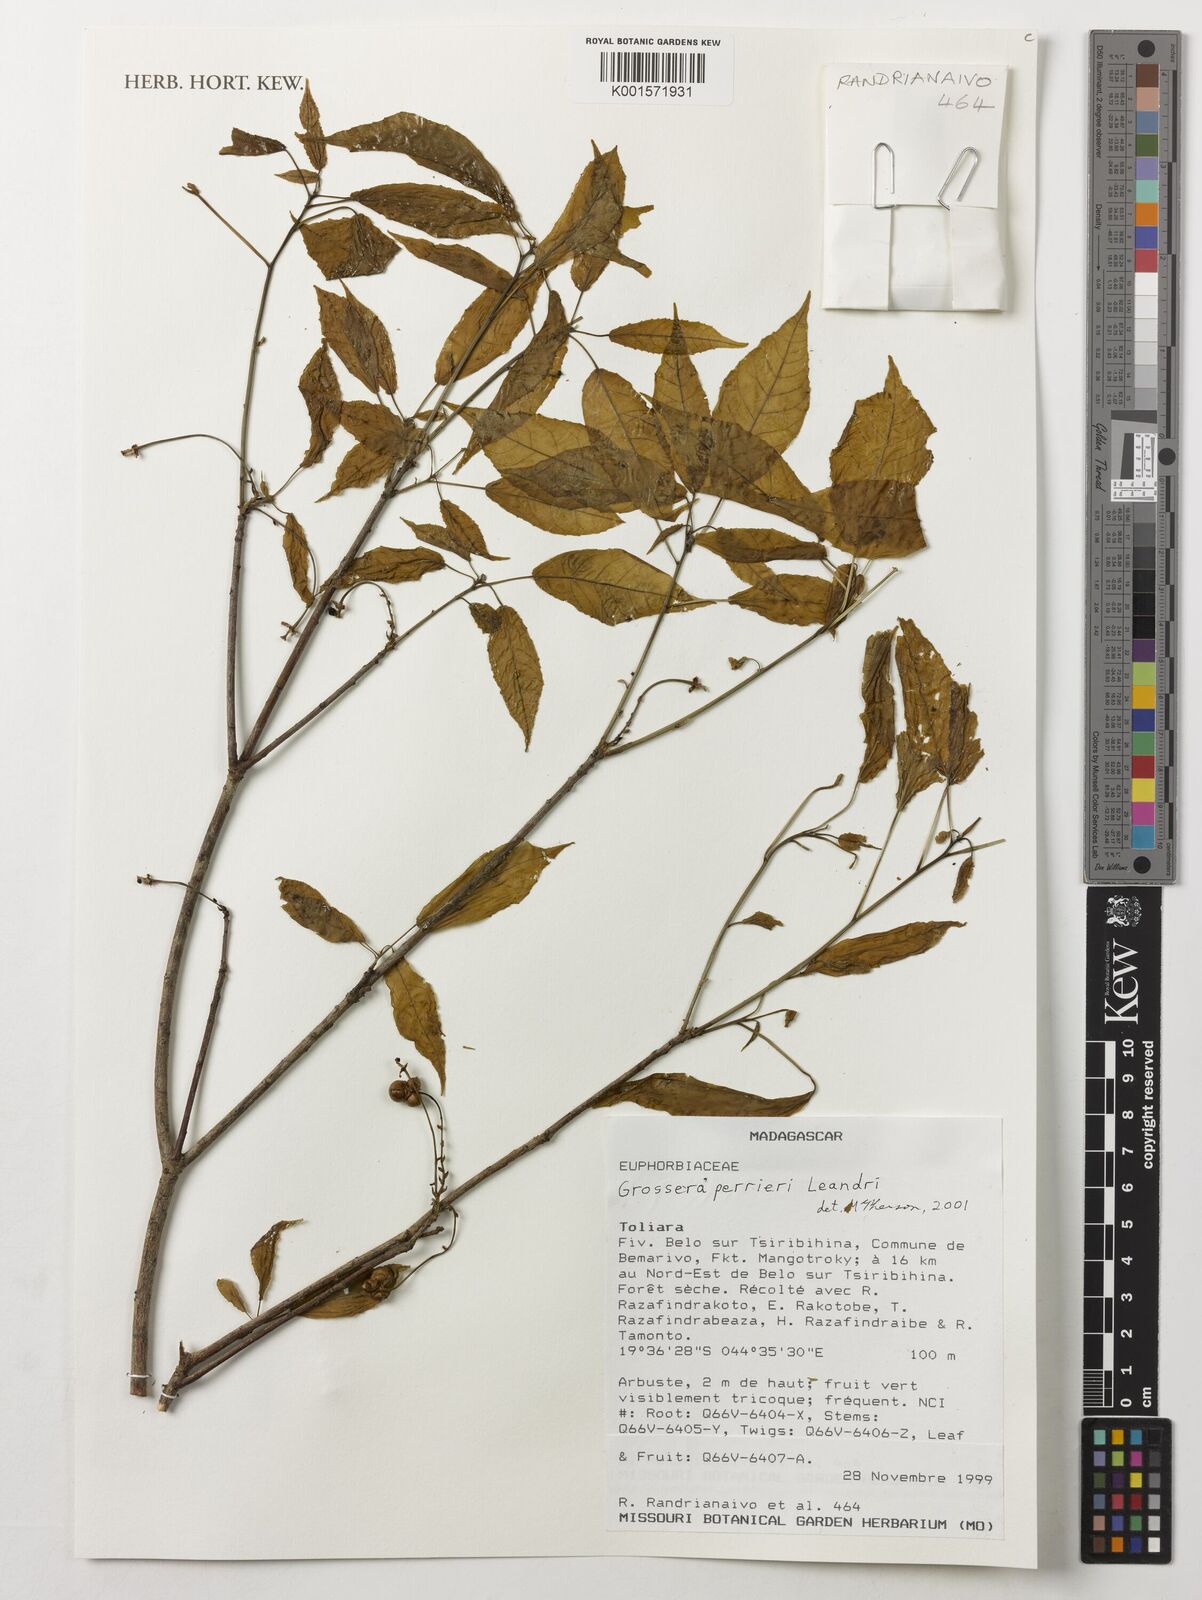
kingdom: Plantae
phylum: Tracheophyta
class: Magnoliopsida
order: Malpighiales
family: Euphorbiaceae
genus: Grossera
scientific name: Grossera perrieri
